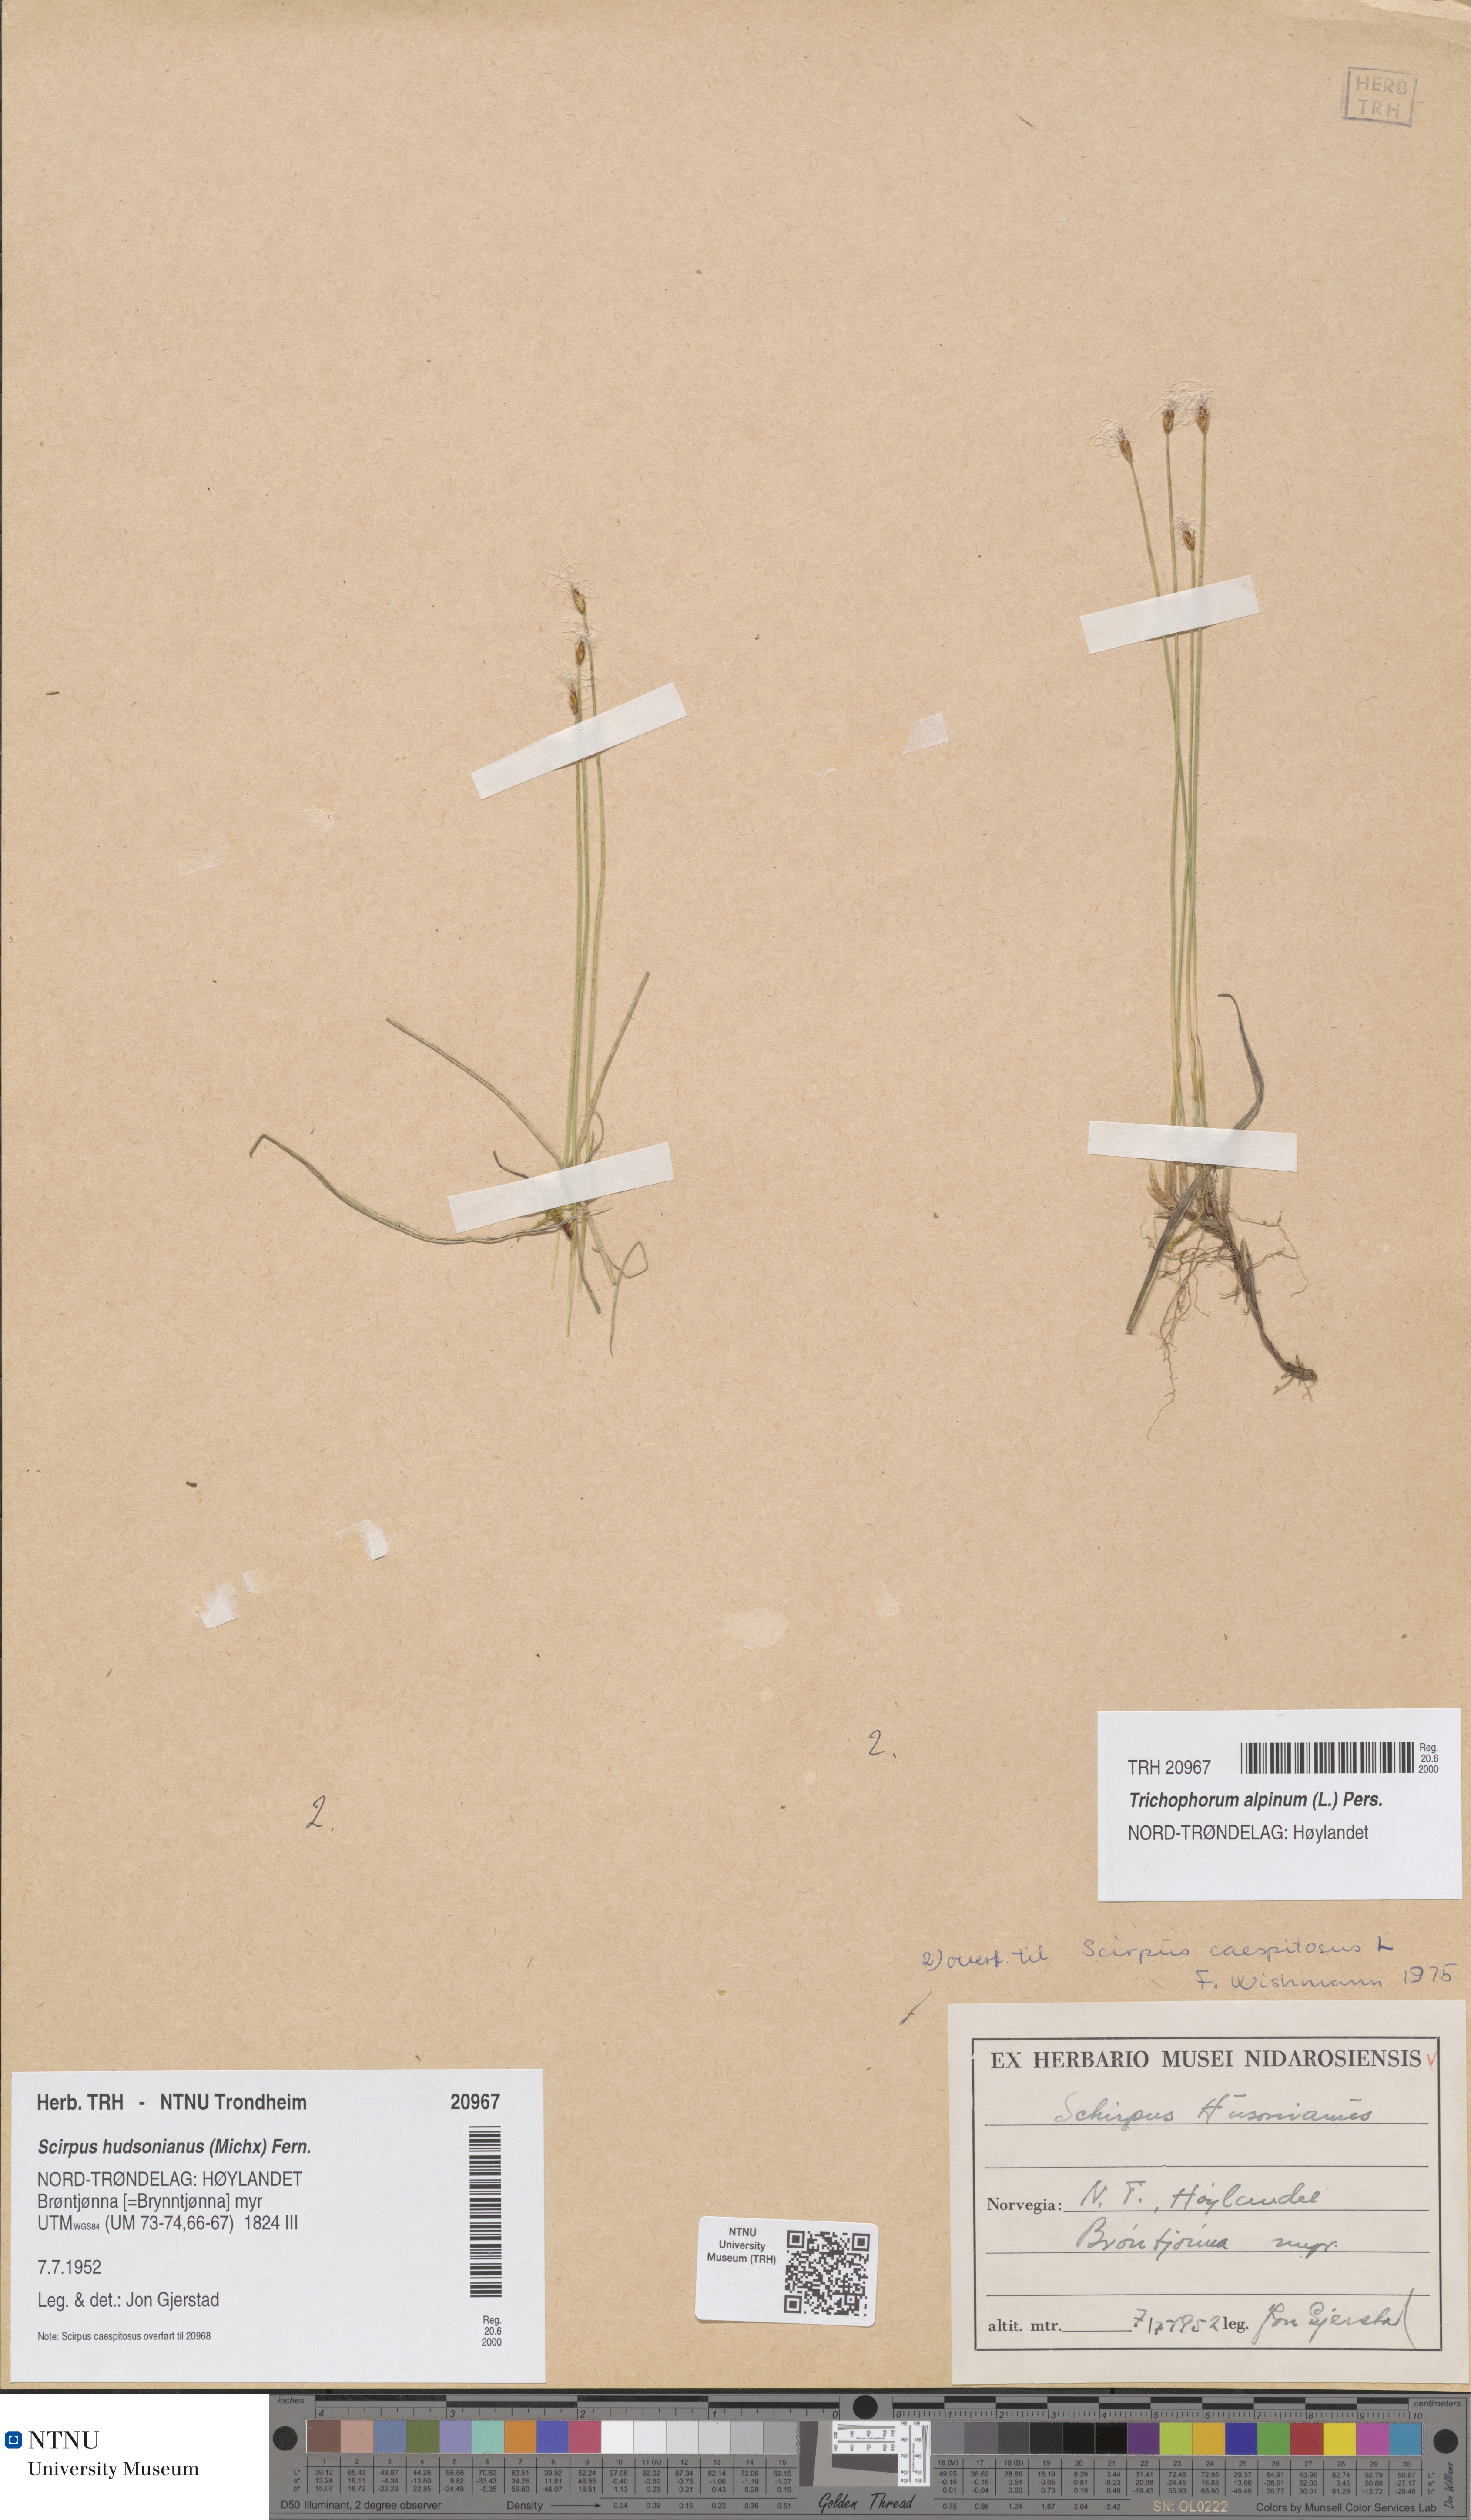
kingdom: Plantae
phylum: Tracheophyta
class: Liliopsida
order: Poales
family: Cyperaceae
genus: Trichophorum
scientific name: Trichophorum alpinum
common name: Alpine bulrush
